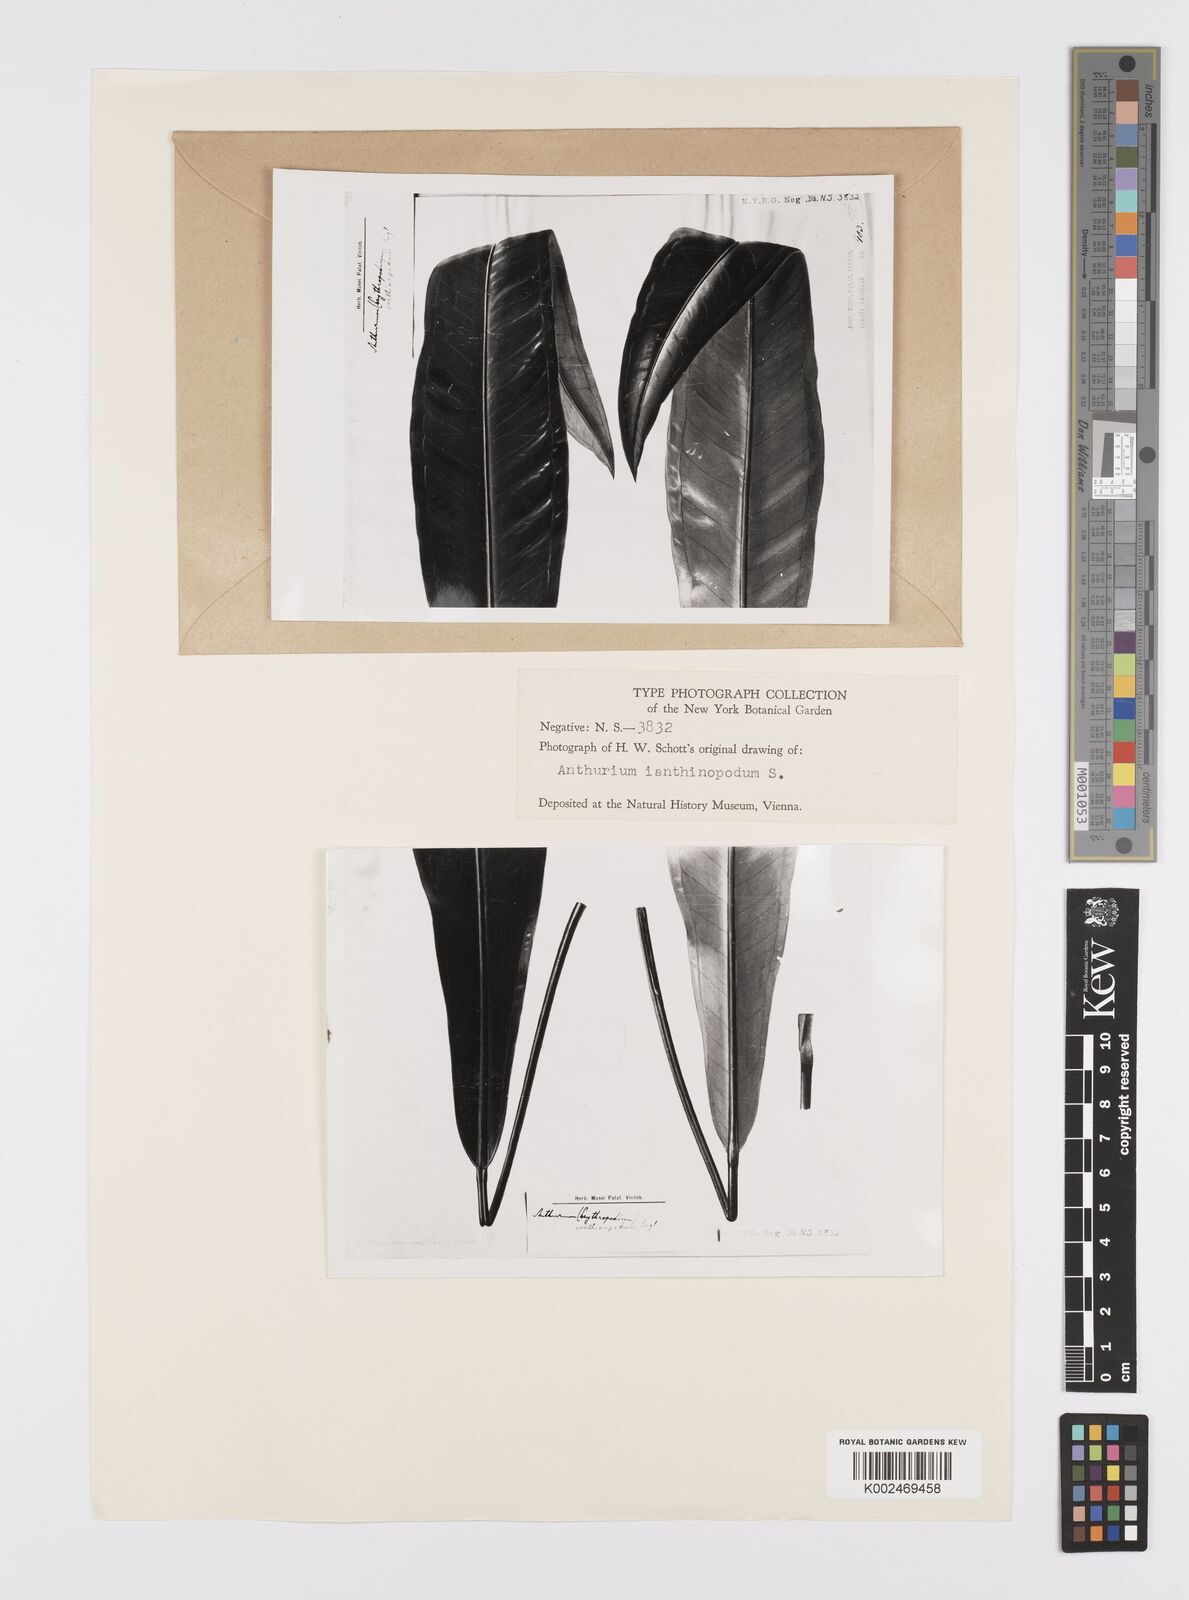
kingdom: Plantae
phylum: Tracheophyta
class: Liliopsida
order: Alismatales
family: Araceae
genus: Anthurium
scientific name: Anthurium ianthinopodum
